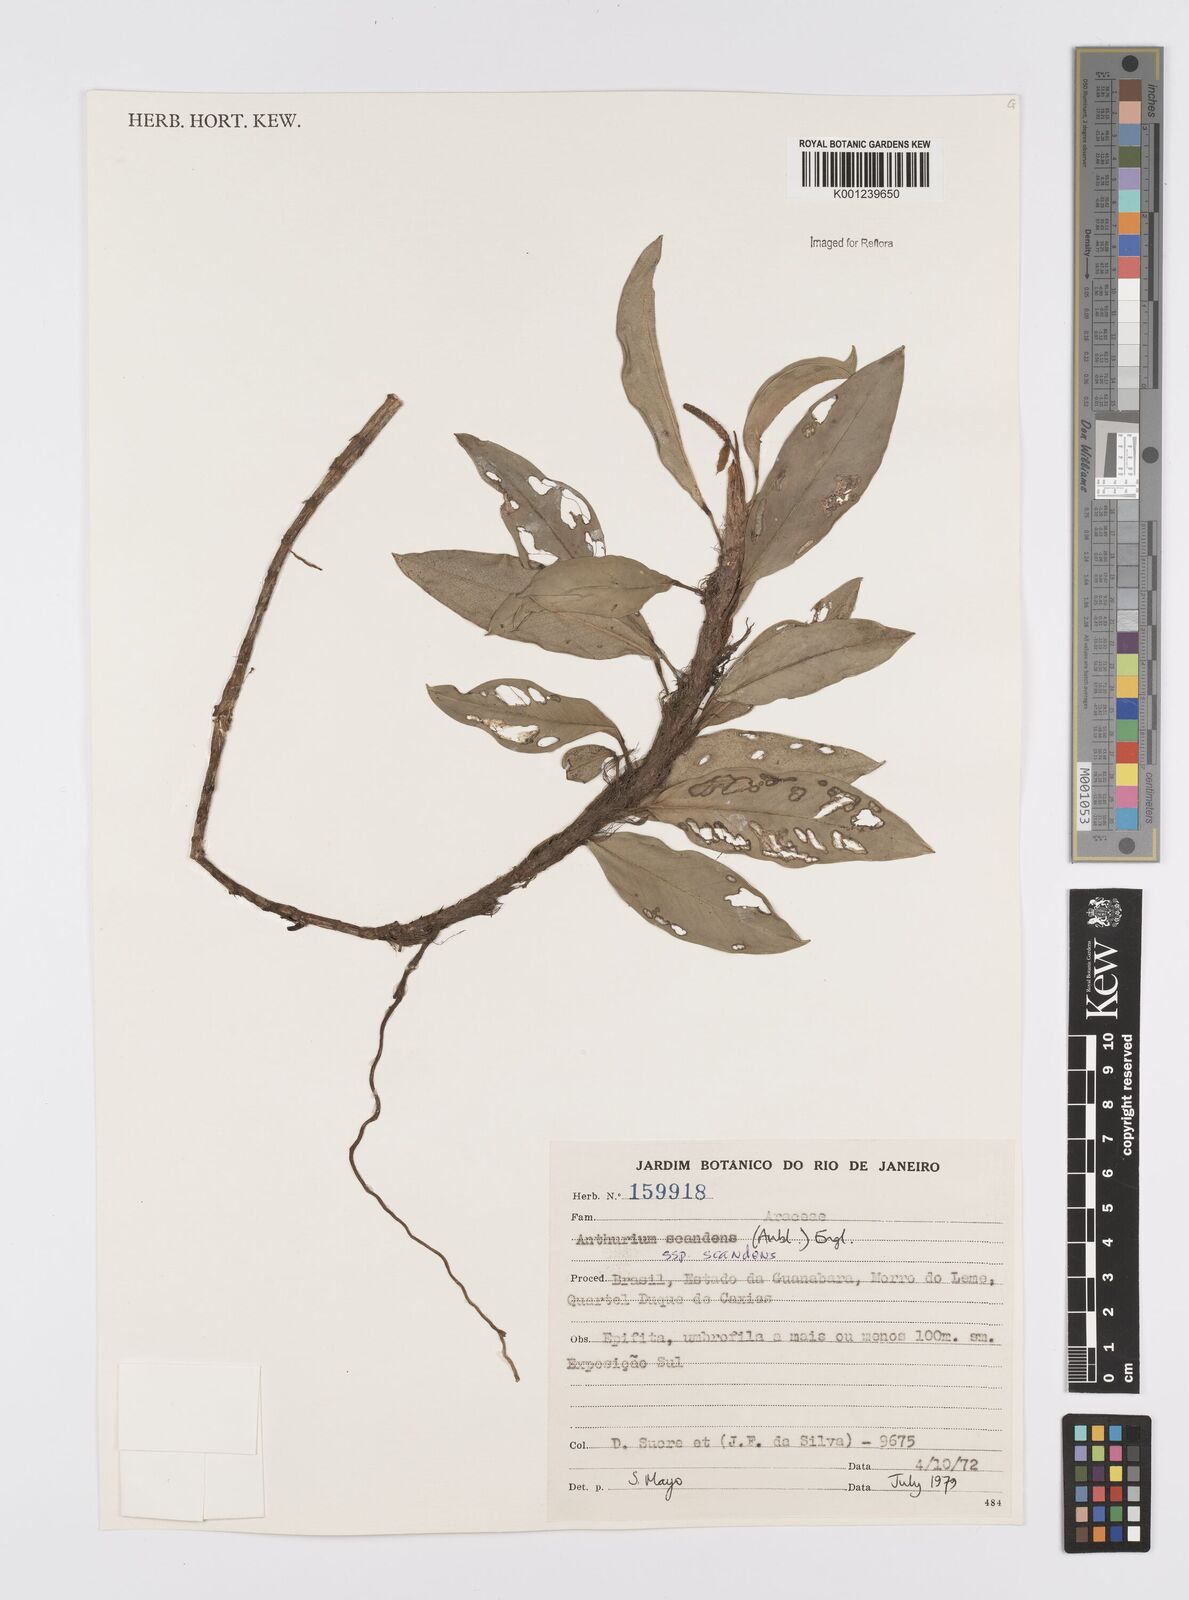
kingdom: Plantae
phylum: Tracheophyta
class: Liliopsida
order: Alismatales
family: Araceae
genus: Anthurium
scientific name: Anthurium scandens
